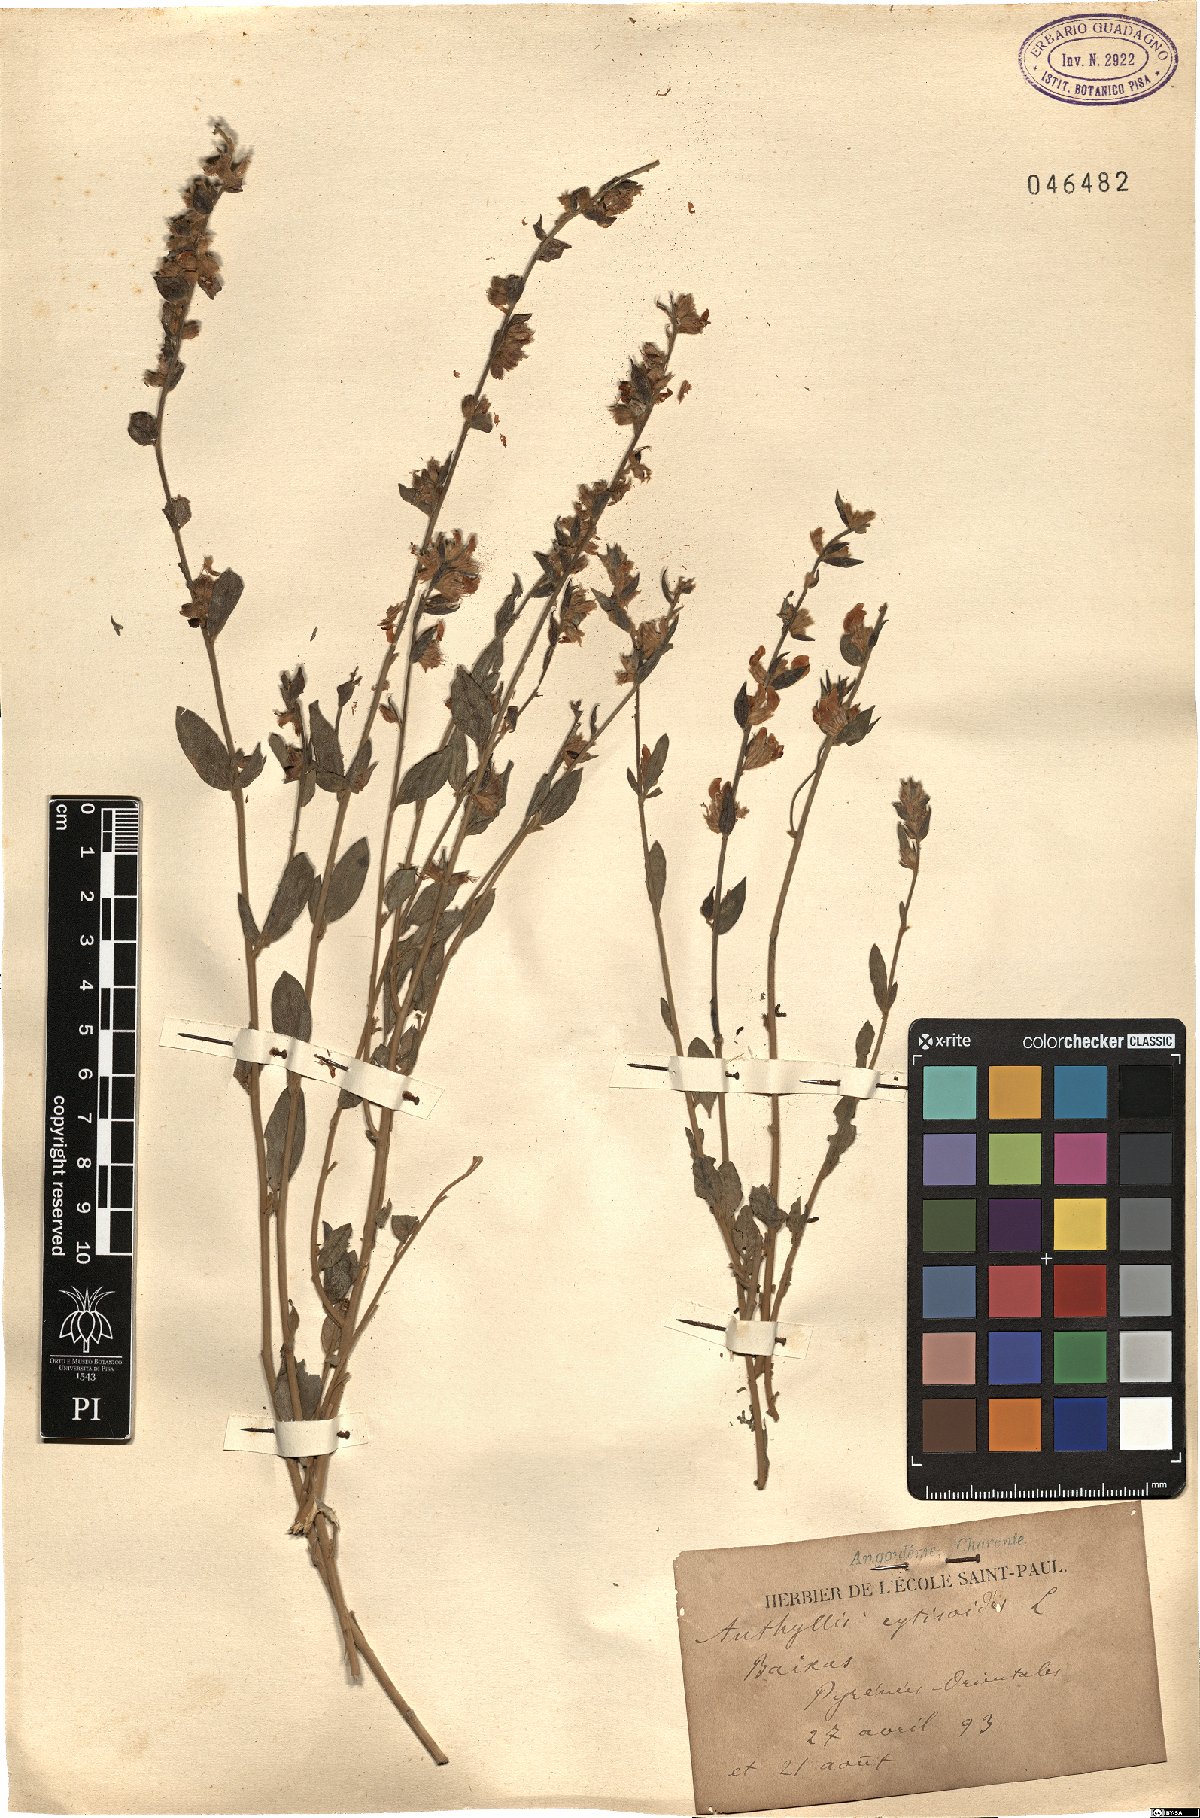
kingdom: Plantae
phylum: Tracheophyta
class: Magnoliopsida
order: Fabales
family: Fabaceae
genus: Anthyllis
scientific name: Anthyllis cytisoides
